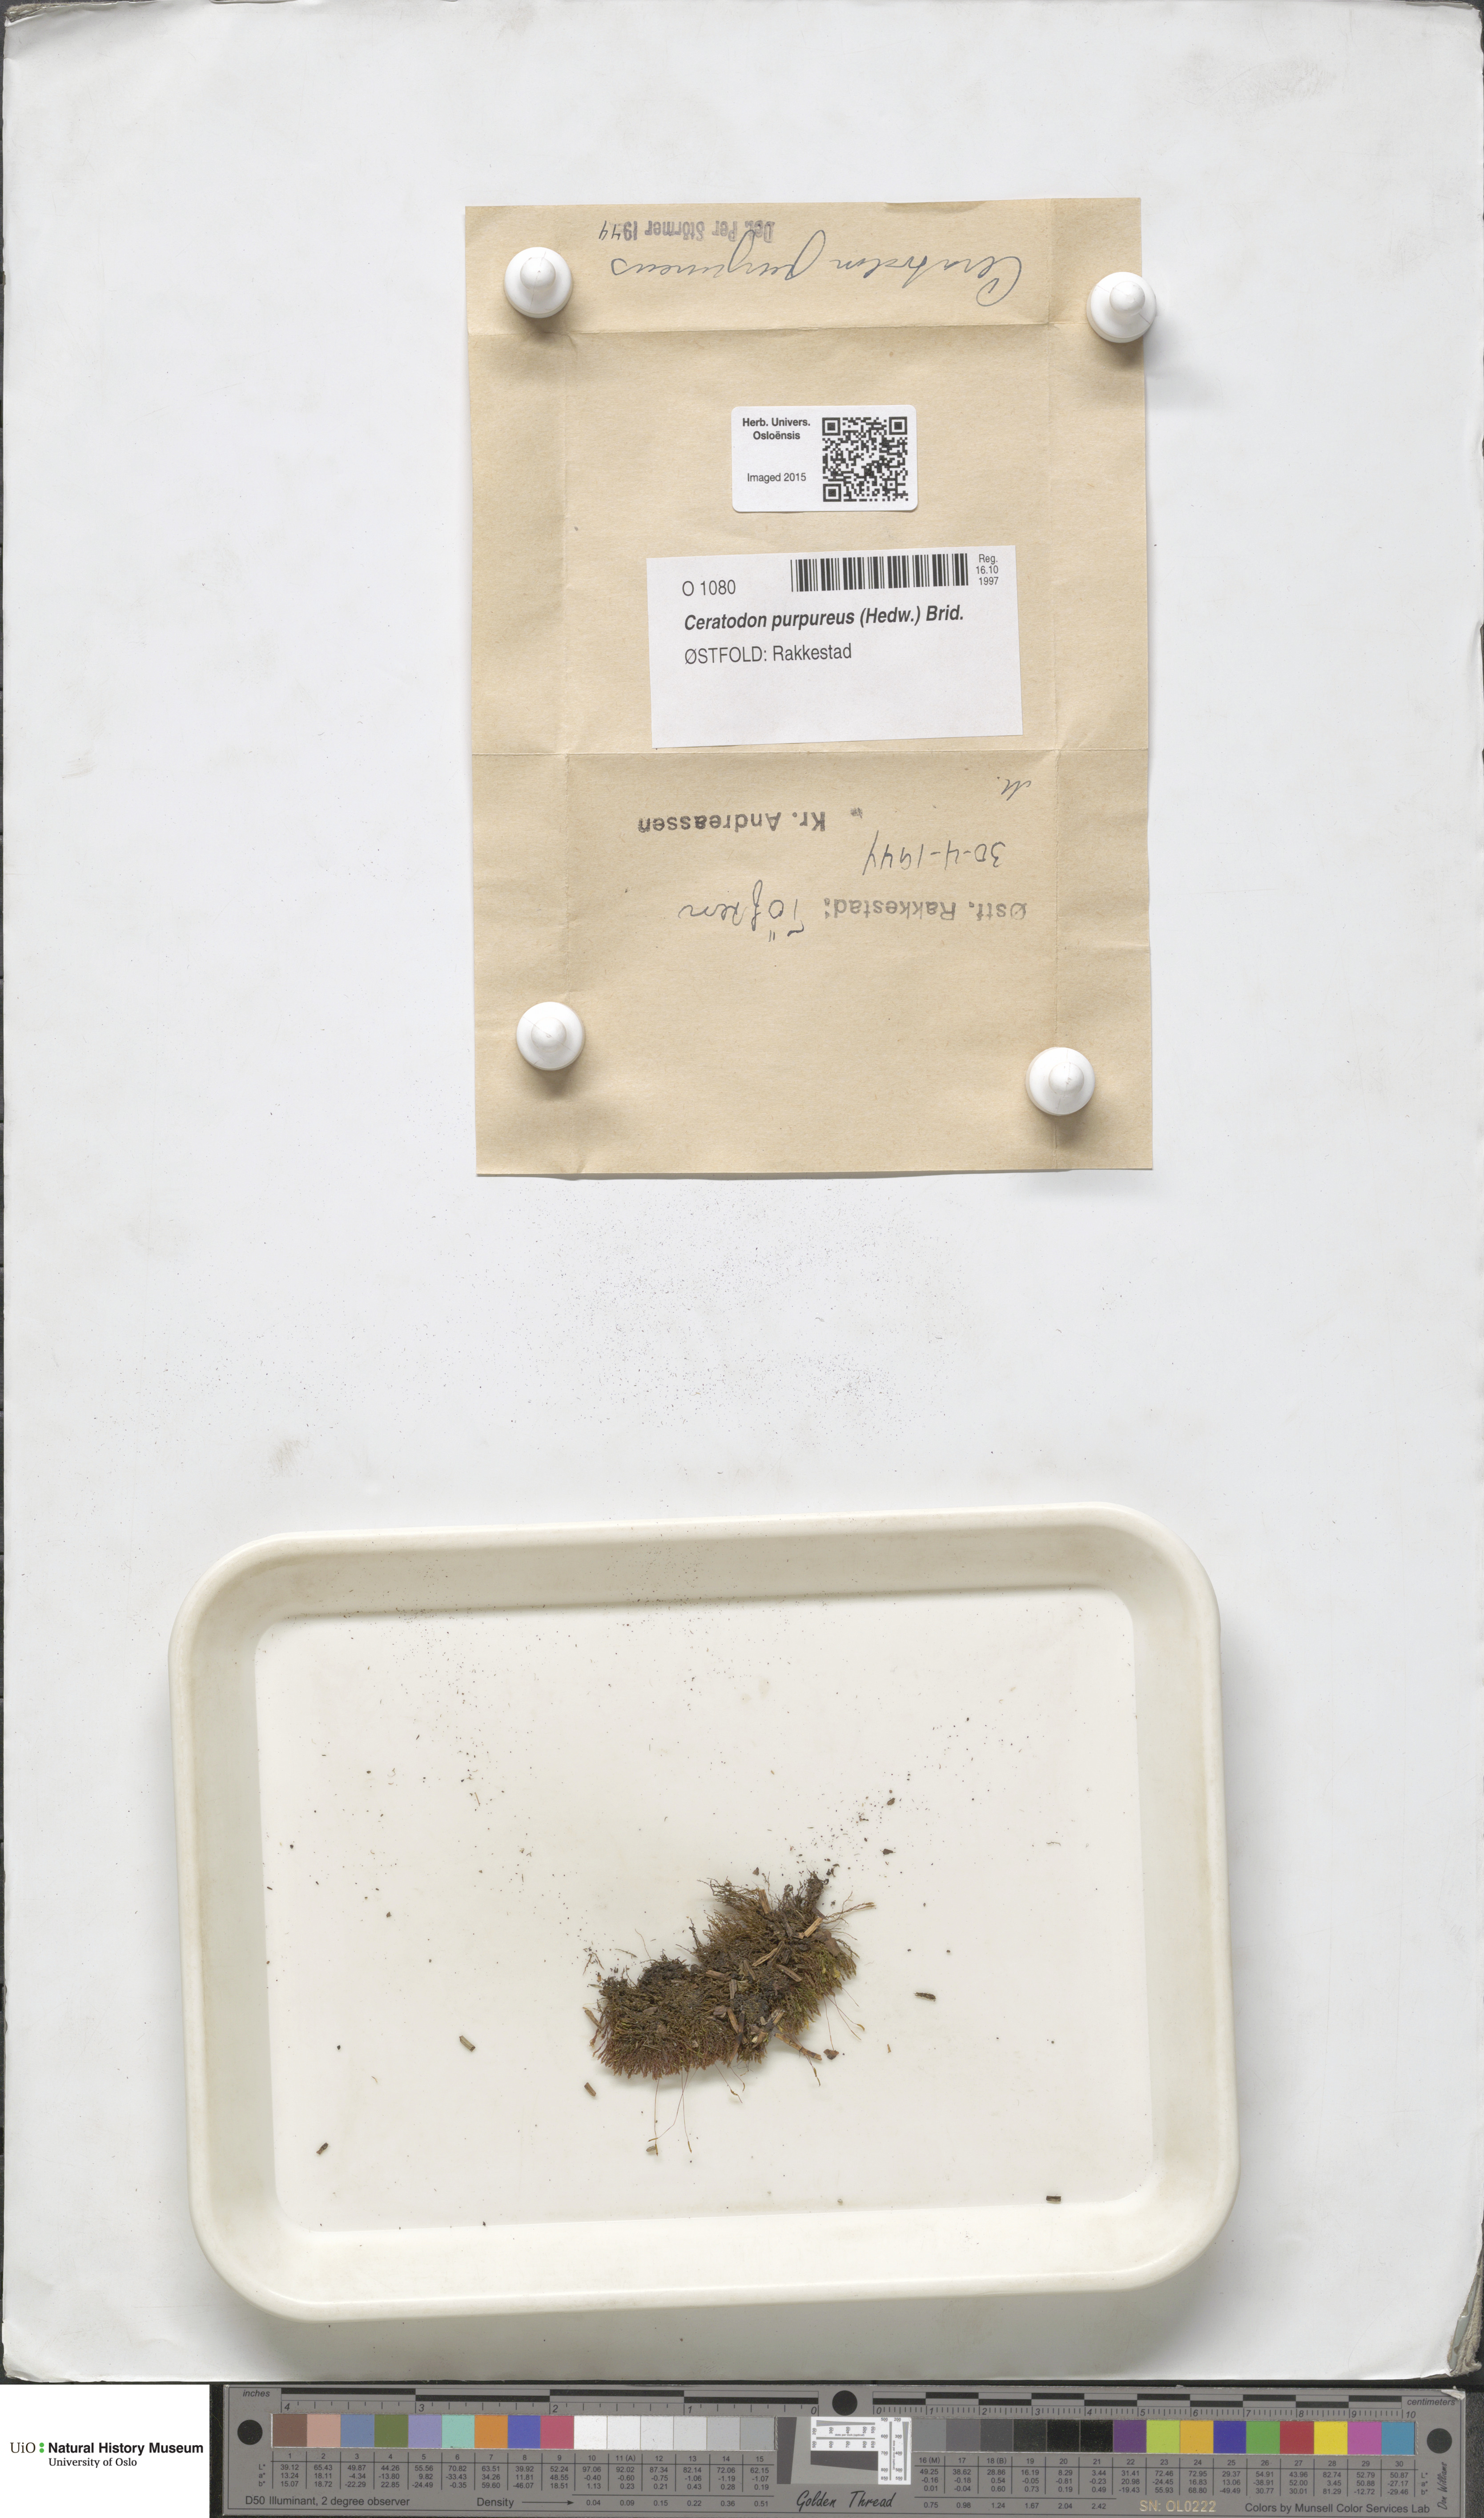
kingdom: Plantae
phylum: Bryophyta
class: Bryopsida
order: Dicranales
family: Ditrichaceae
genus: Ceratodon
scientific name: Ceratodon purpureus
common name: Redshank
